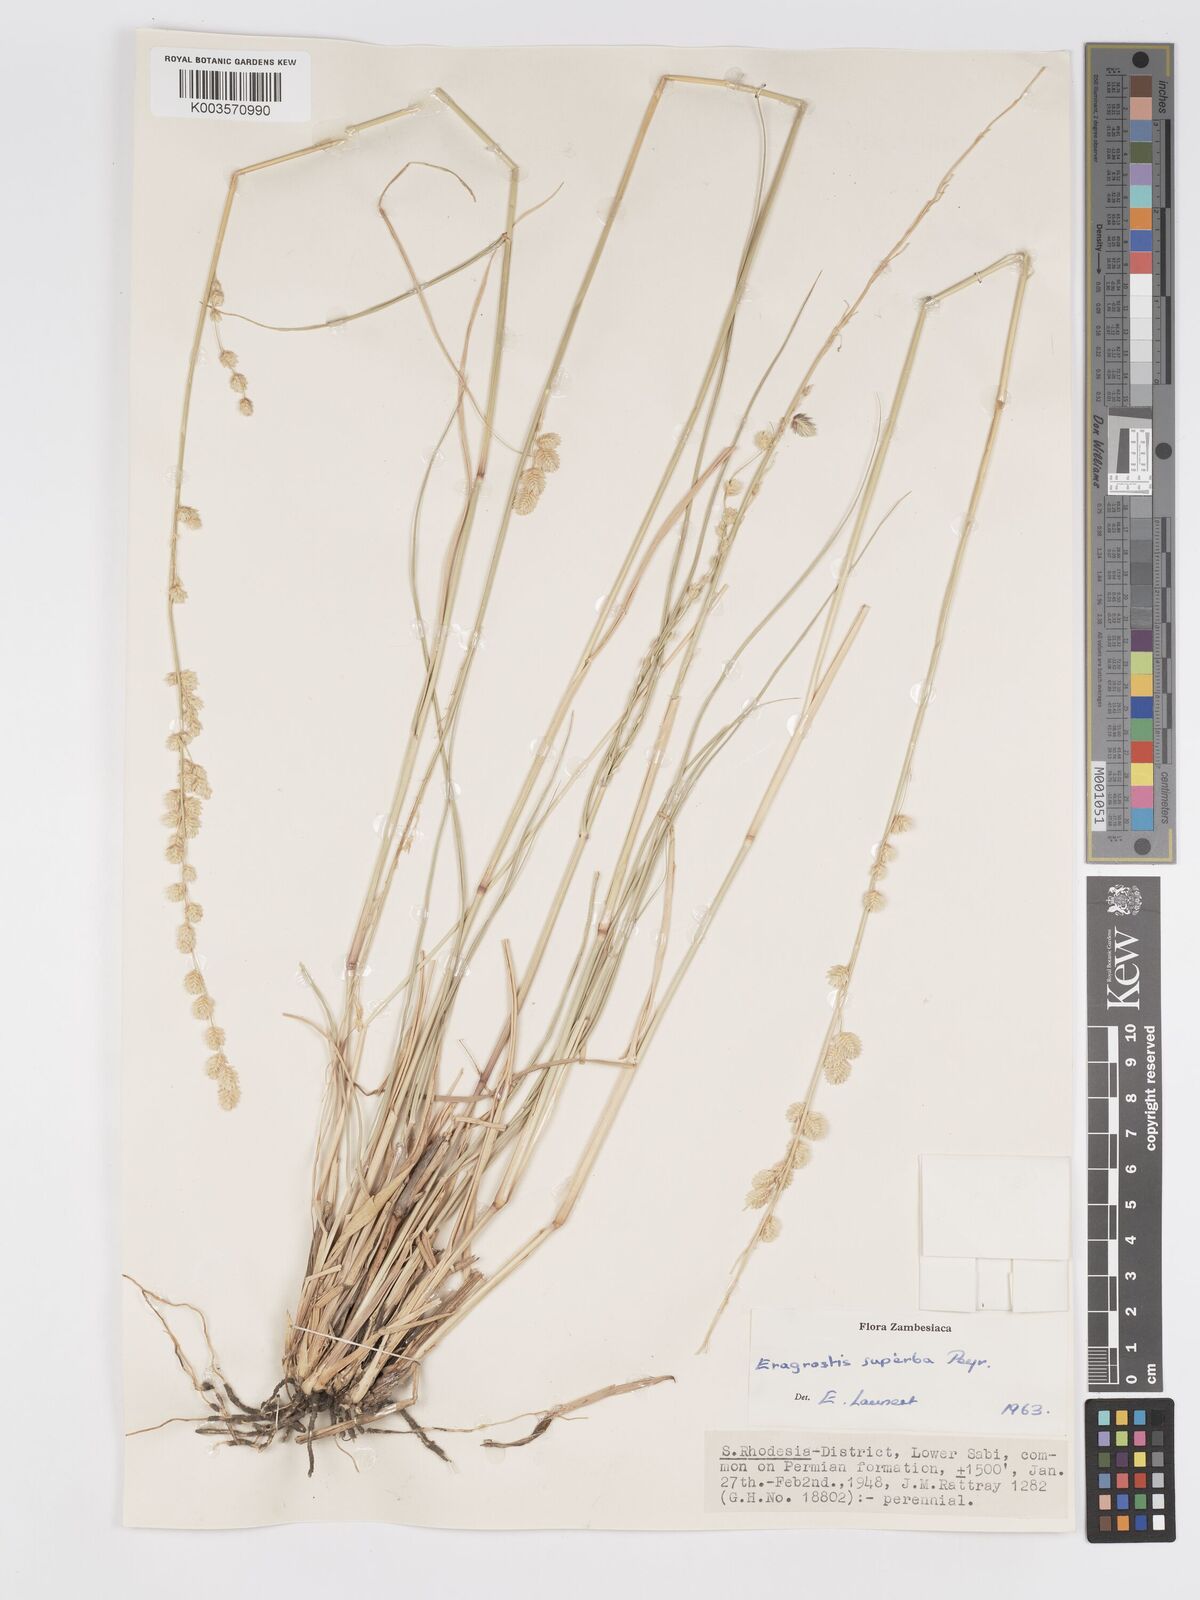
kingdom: Plantae
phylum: Tracheophyta
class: Liliopsida
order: Poales
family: Poaceae
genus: Eragrostis
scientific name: Eragrostis superba
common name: Wilman lovegrass
